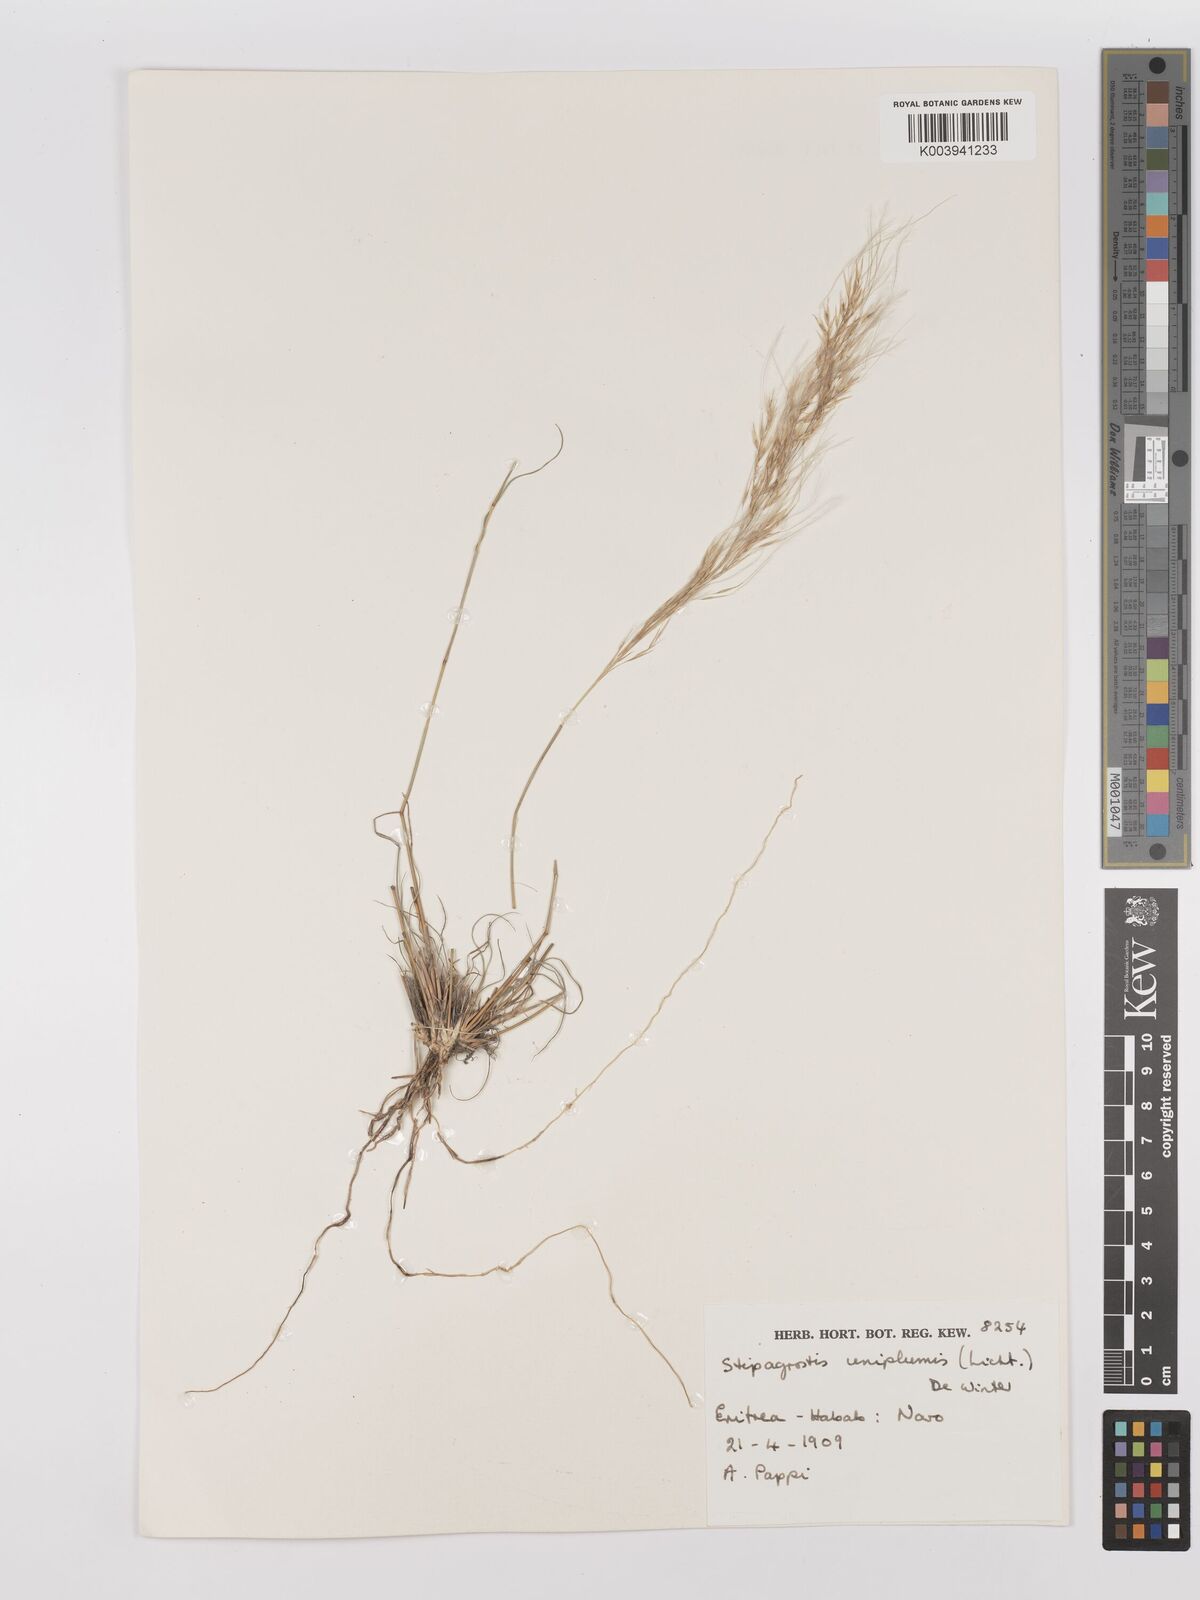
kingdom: Plantae
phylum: Tracheophyta
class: Liliopsida
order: Poales
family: Poaceae
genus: Stipagrostis
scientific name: Stipagrostis uniplumis
